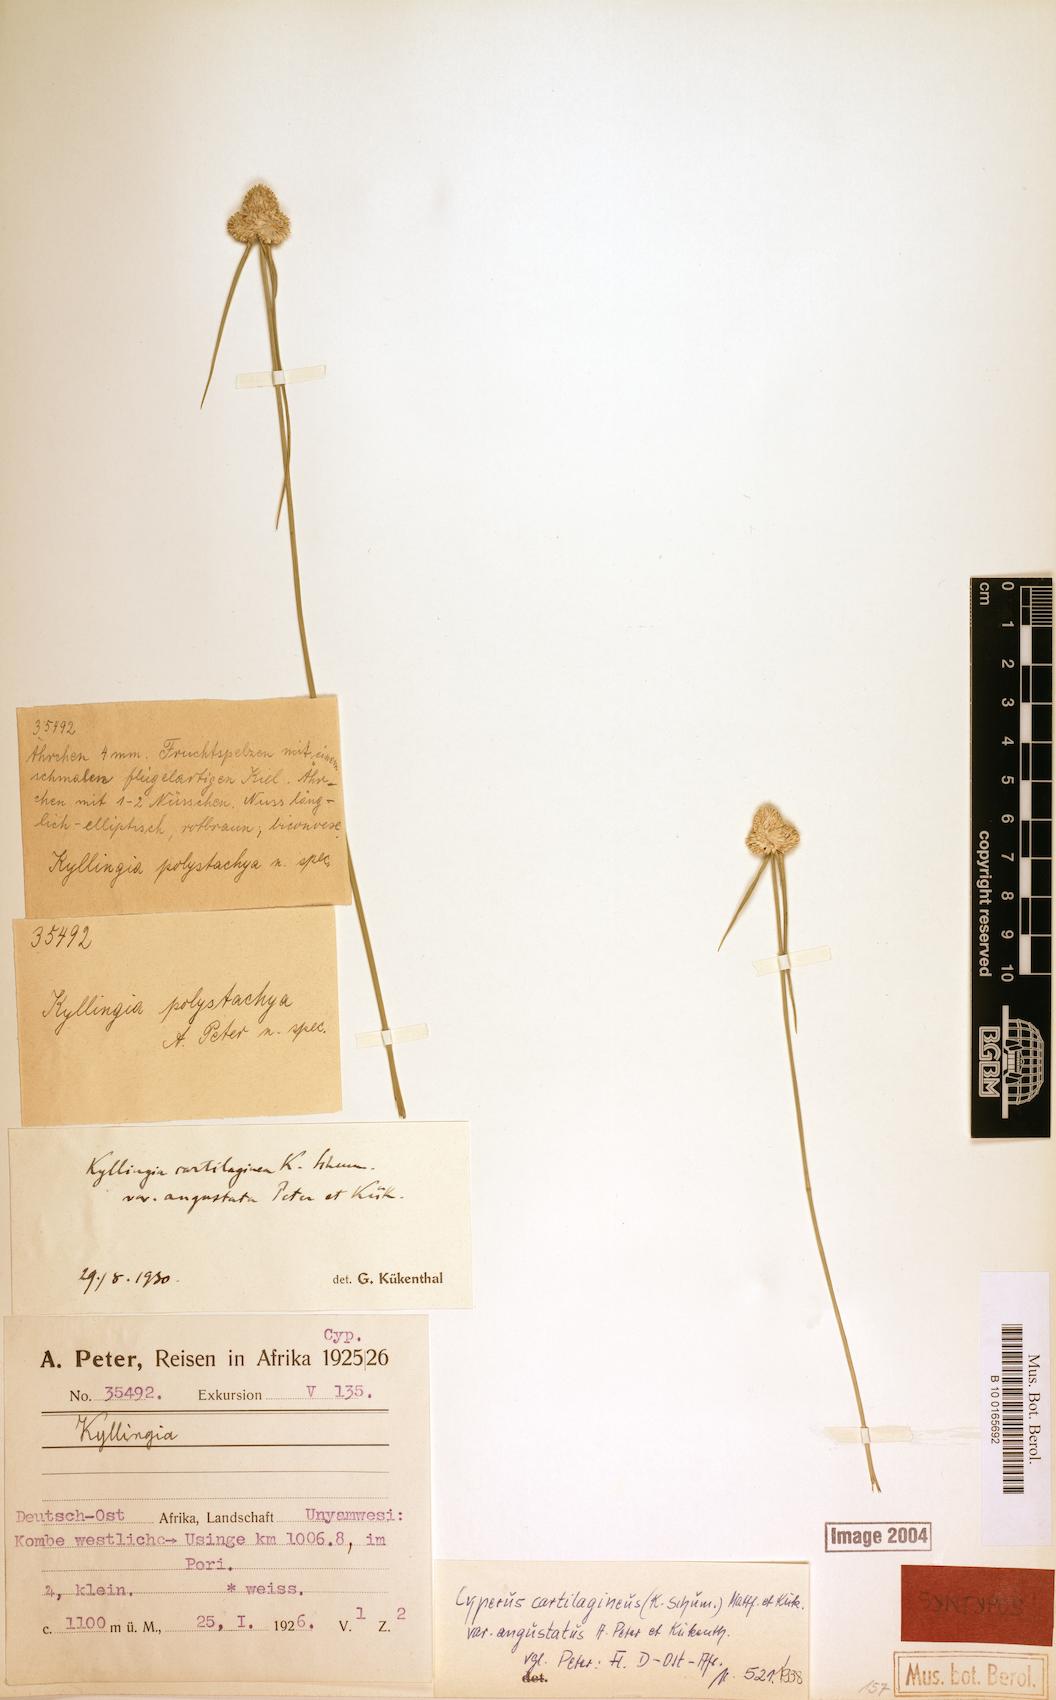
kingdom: Plantae
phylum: Tracheophyta
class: Liliopsida
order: Poales
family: Cyperaceae
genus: Cyperus
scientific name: Cyperus comosipes
